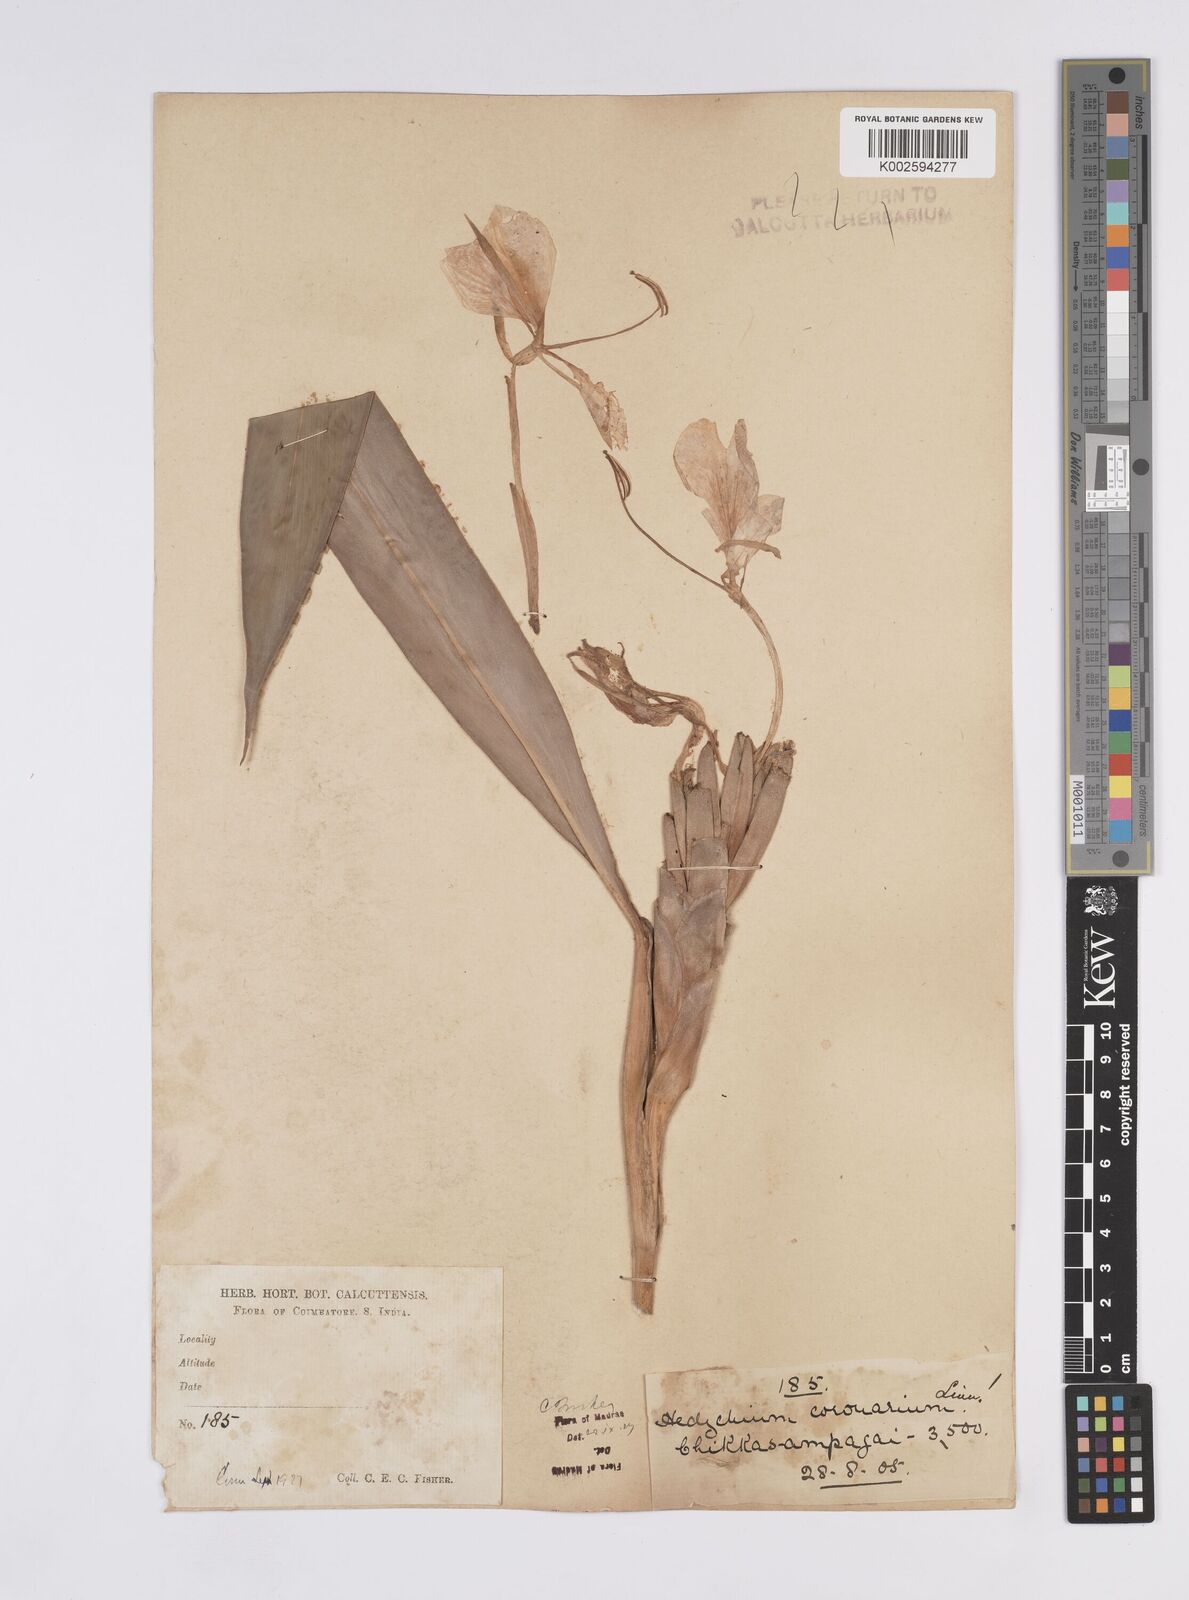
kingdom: Plantae
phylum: Tracheophyta
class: Liliopsida
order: Zingiberales
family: Zingiberaceae
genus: Hedychium
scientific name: Hedychium coronarium
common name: White garland-lily
